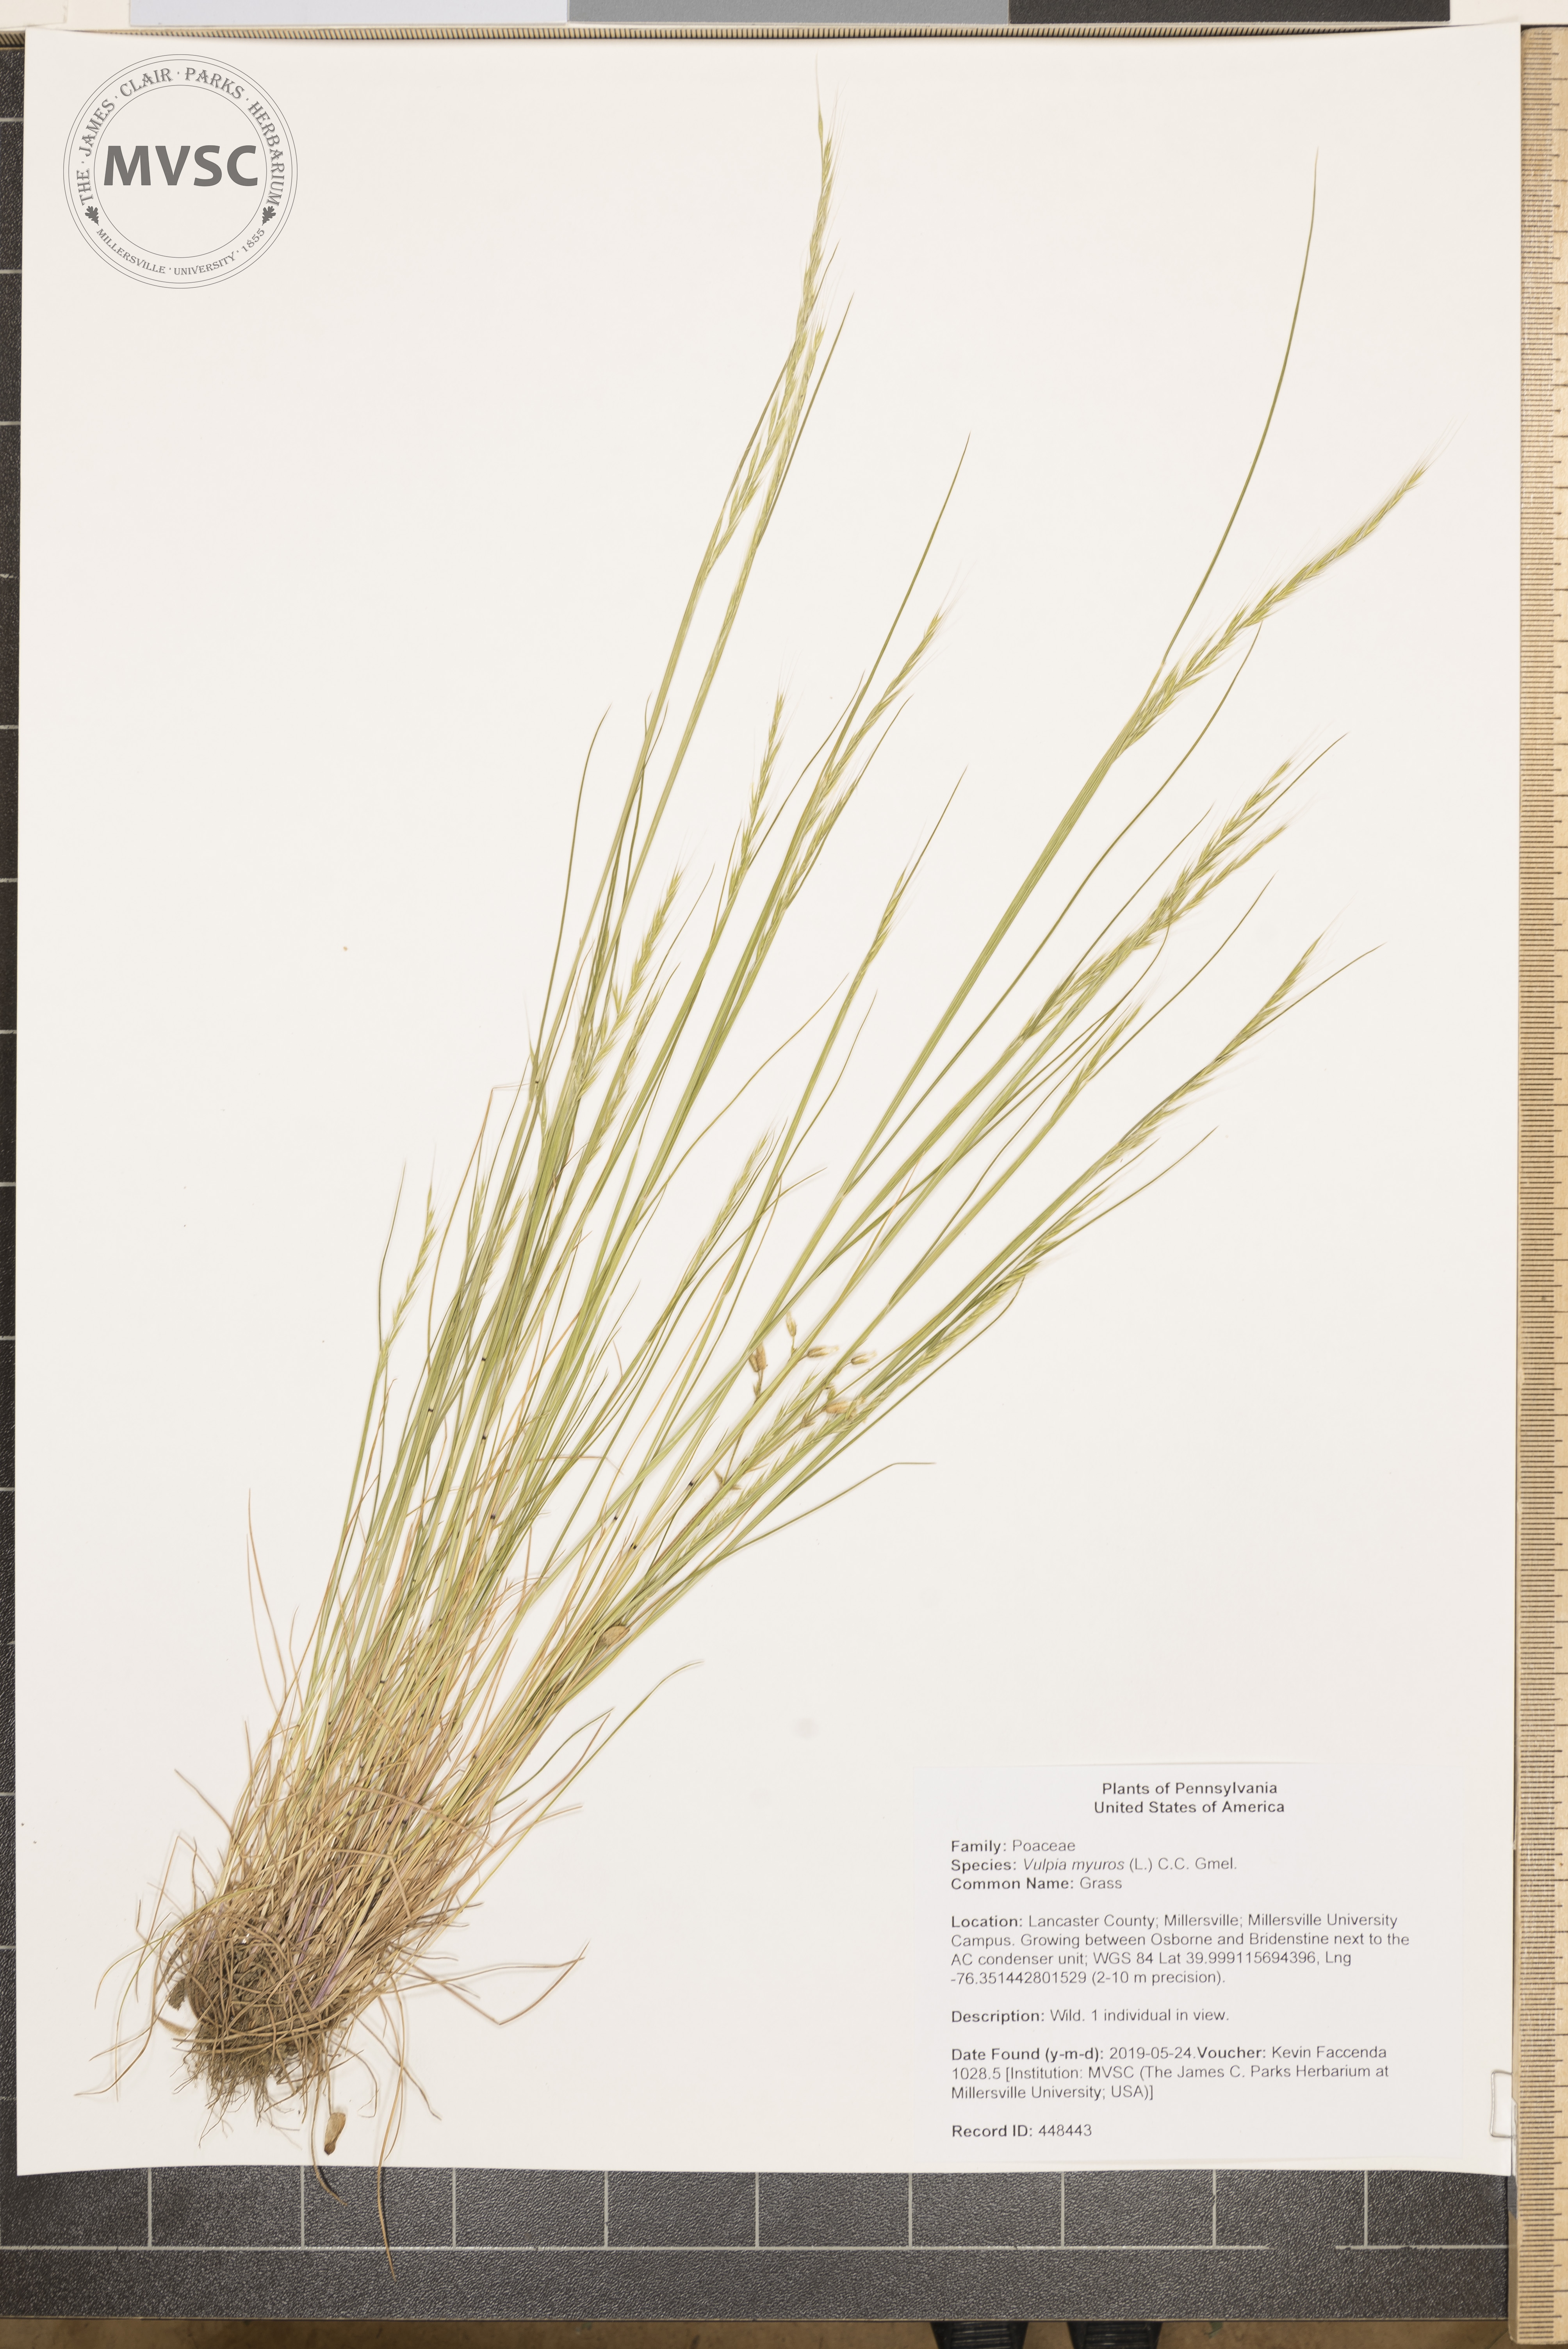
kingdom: Plantae
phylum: Tracheophyta
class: Liliopsida
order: Poales
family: Poaceae
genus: Festuca
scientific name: Festuca myuros
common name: Grass
